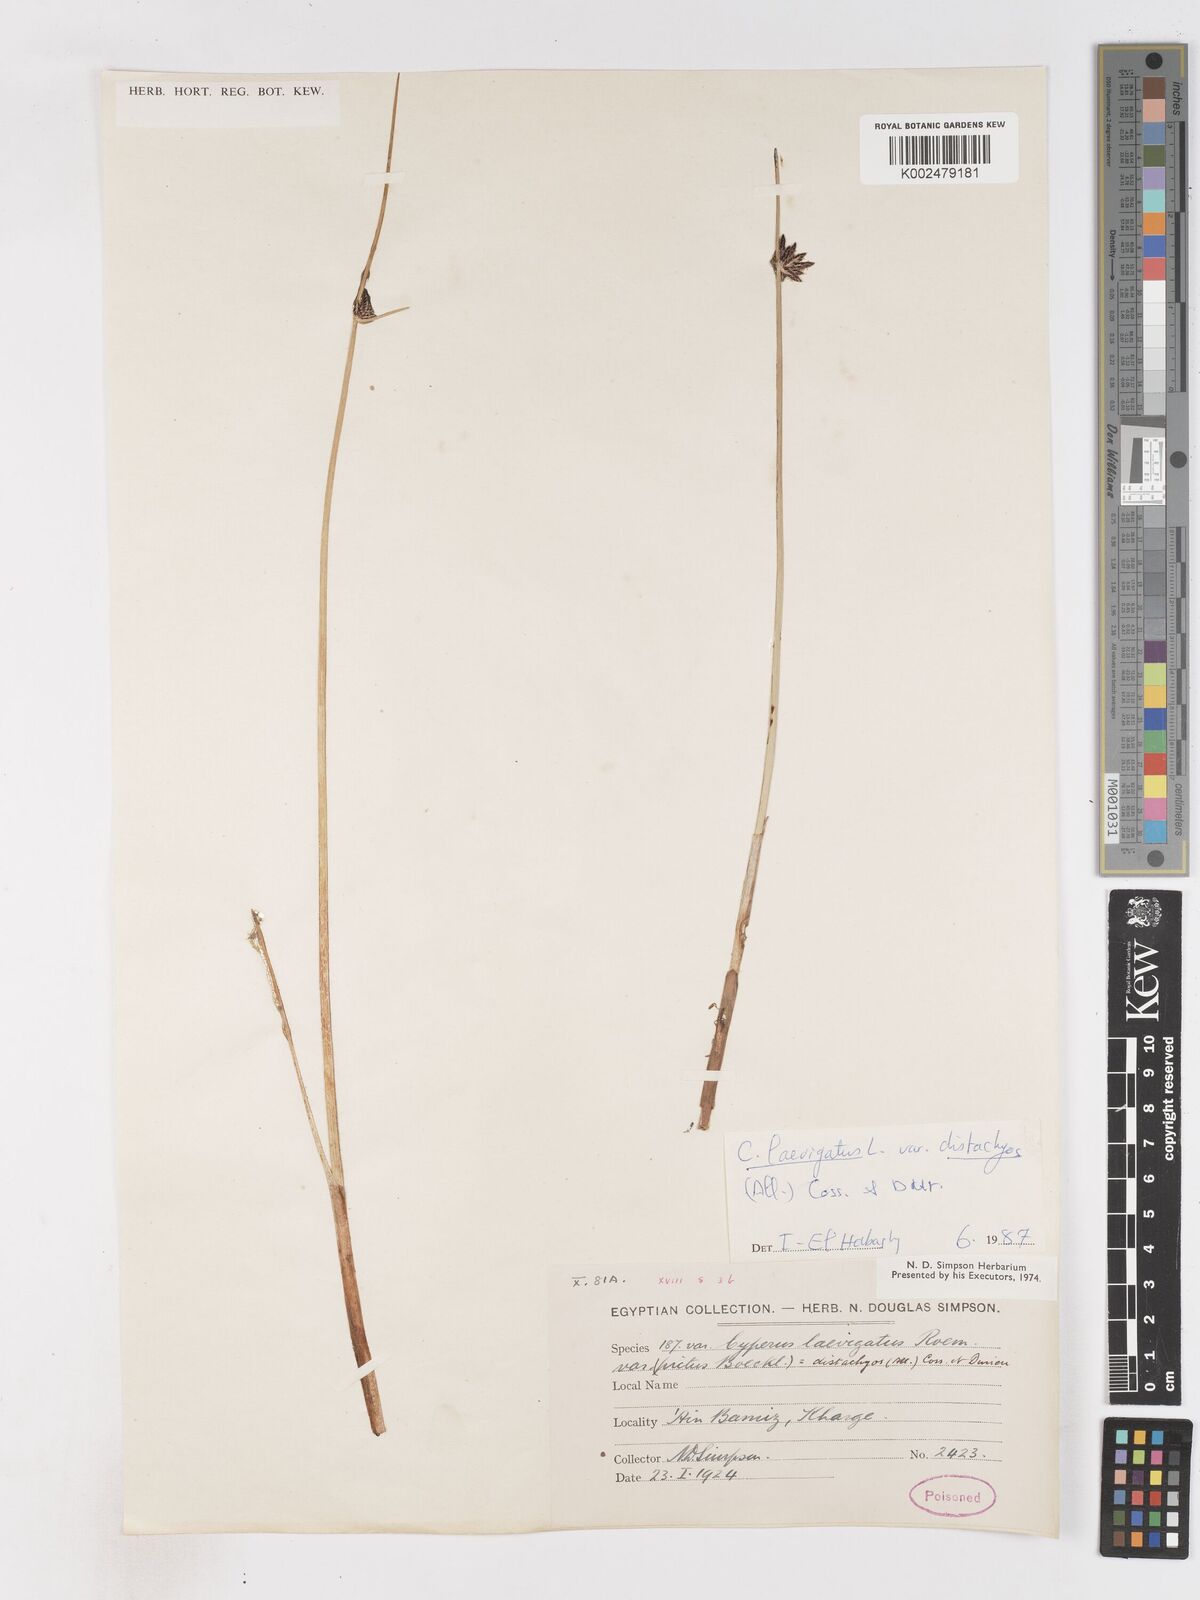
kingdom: Plantae
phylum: Tracheophyta
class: Liliopsida
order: Poales
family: Cyperaceae
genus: Cyperus
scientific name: Cyperus laevigatus
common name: Smooth flat sedge
